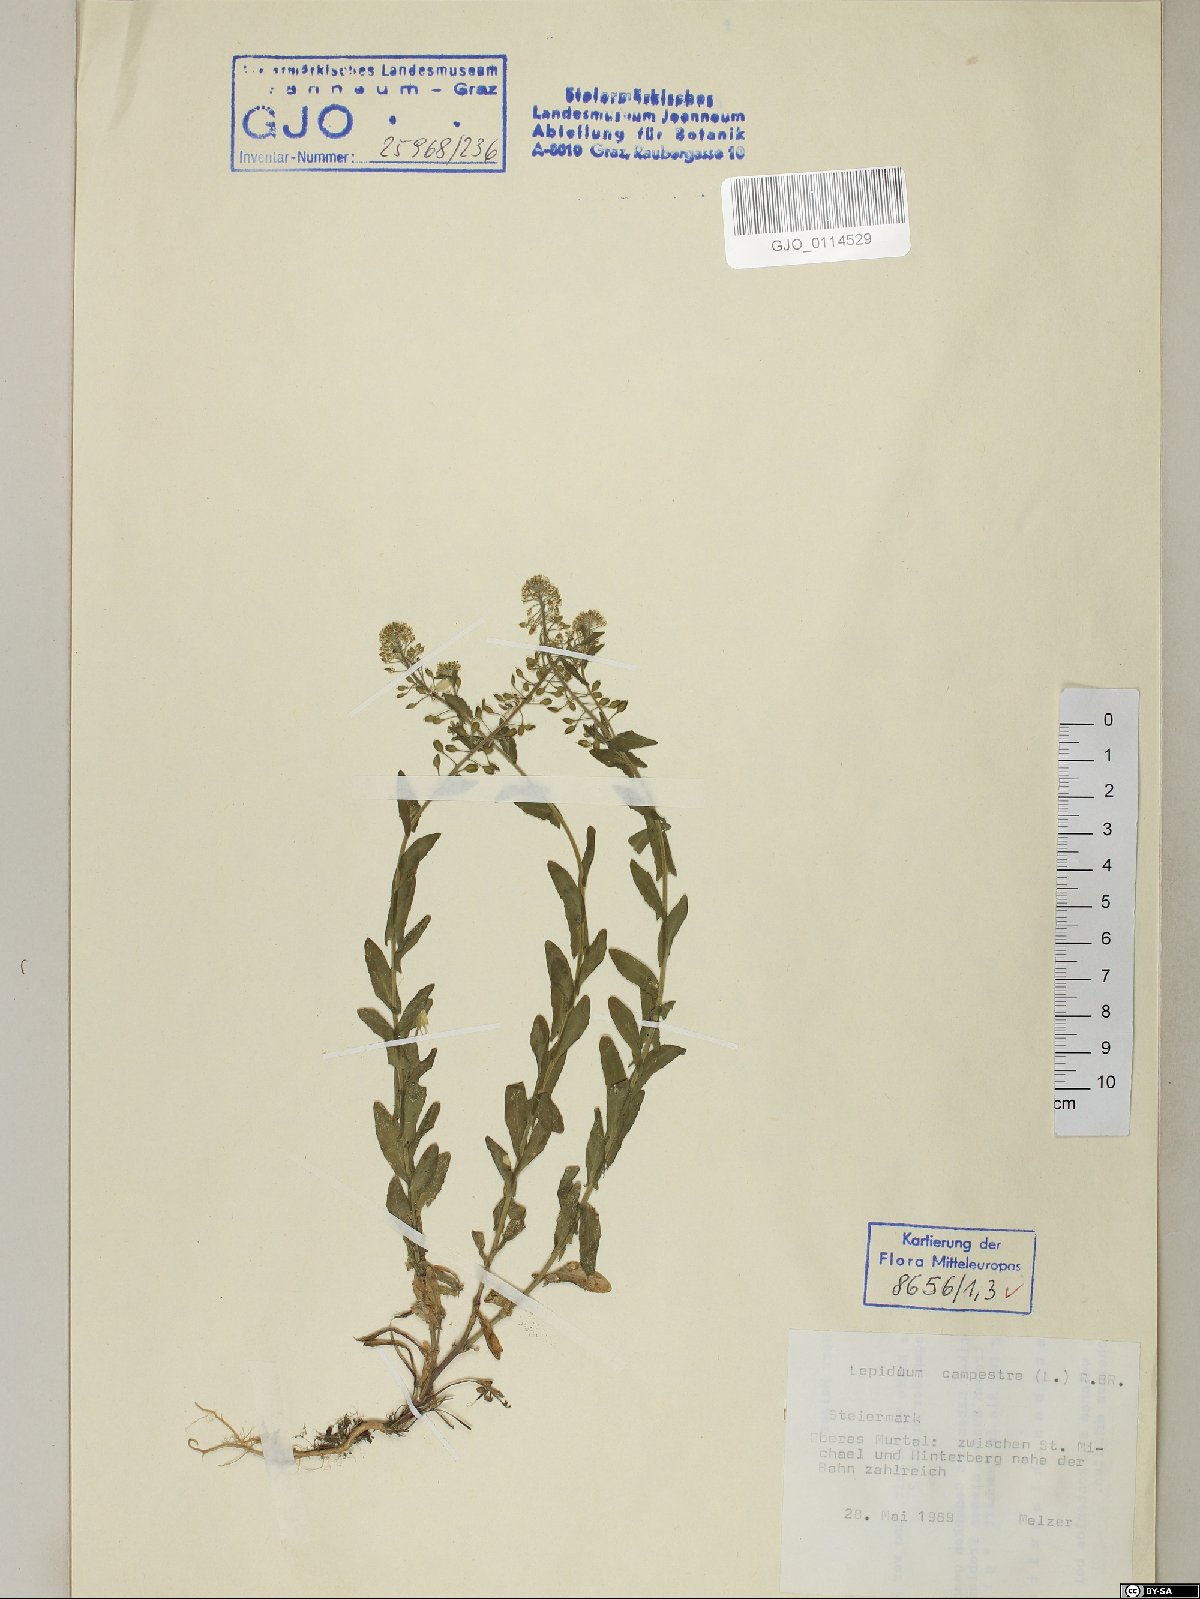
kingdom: Plantae
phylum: Tracheophyta
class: Magnoliopsida
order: Brassicales
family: Brassicaceae
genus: Lepidium
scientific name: Lepidium campestre
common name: Field pepperwort
